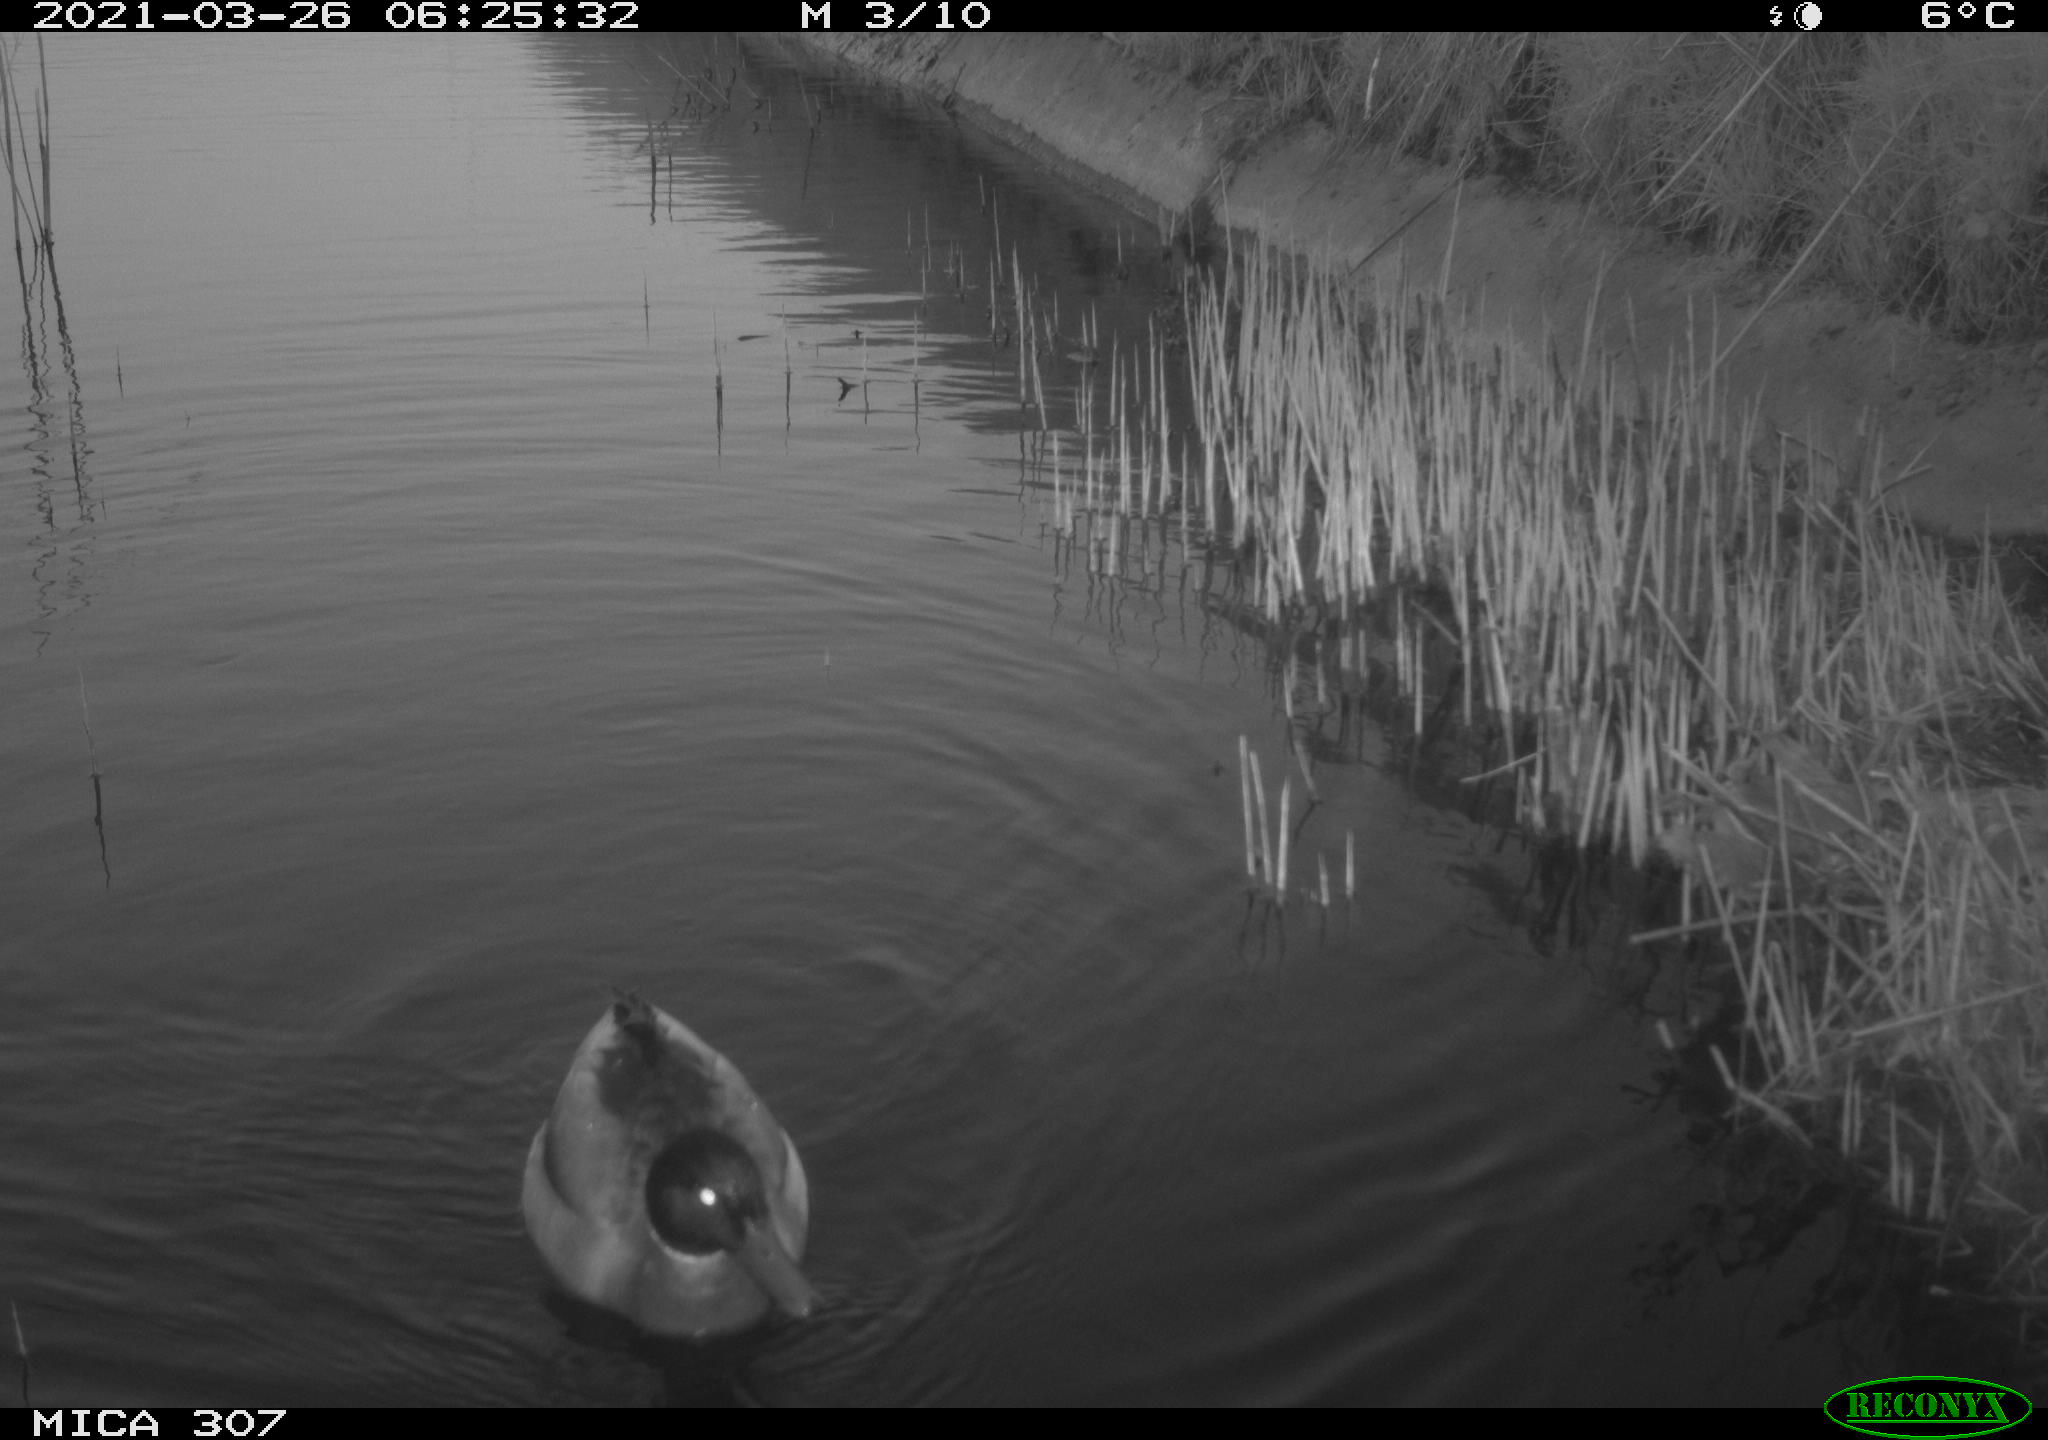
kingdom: Animalia
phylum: Chordata
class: Aves
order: Anseriformes
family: Anatidae
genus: Anas
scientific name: Anas platyrhynchos
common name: Mallard
